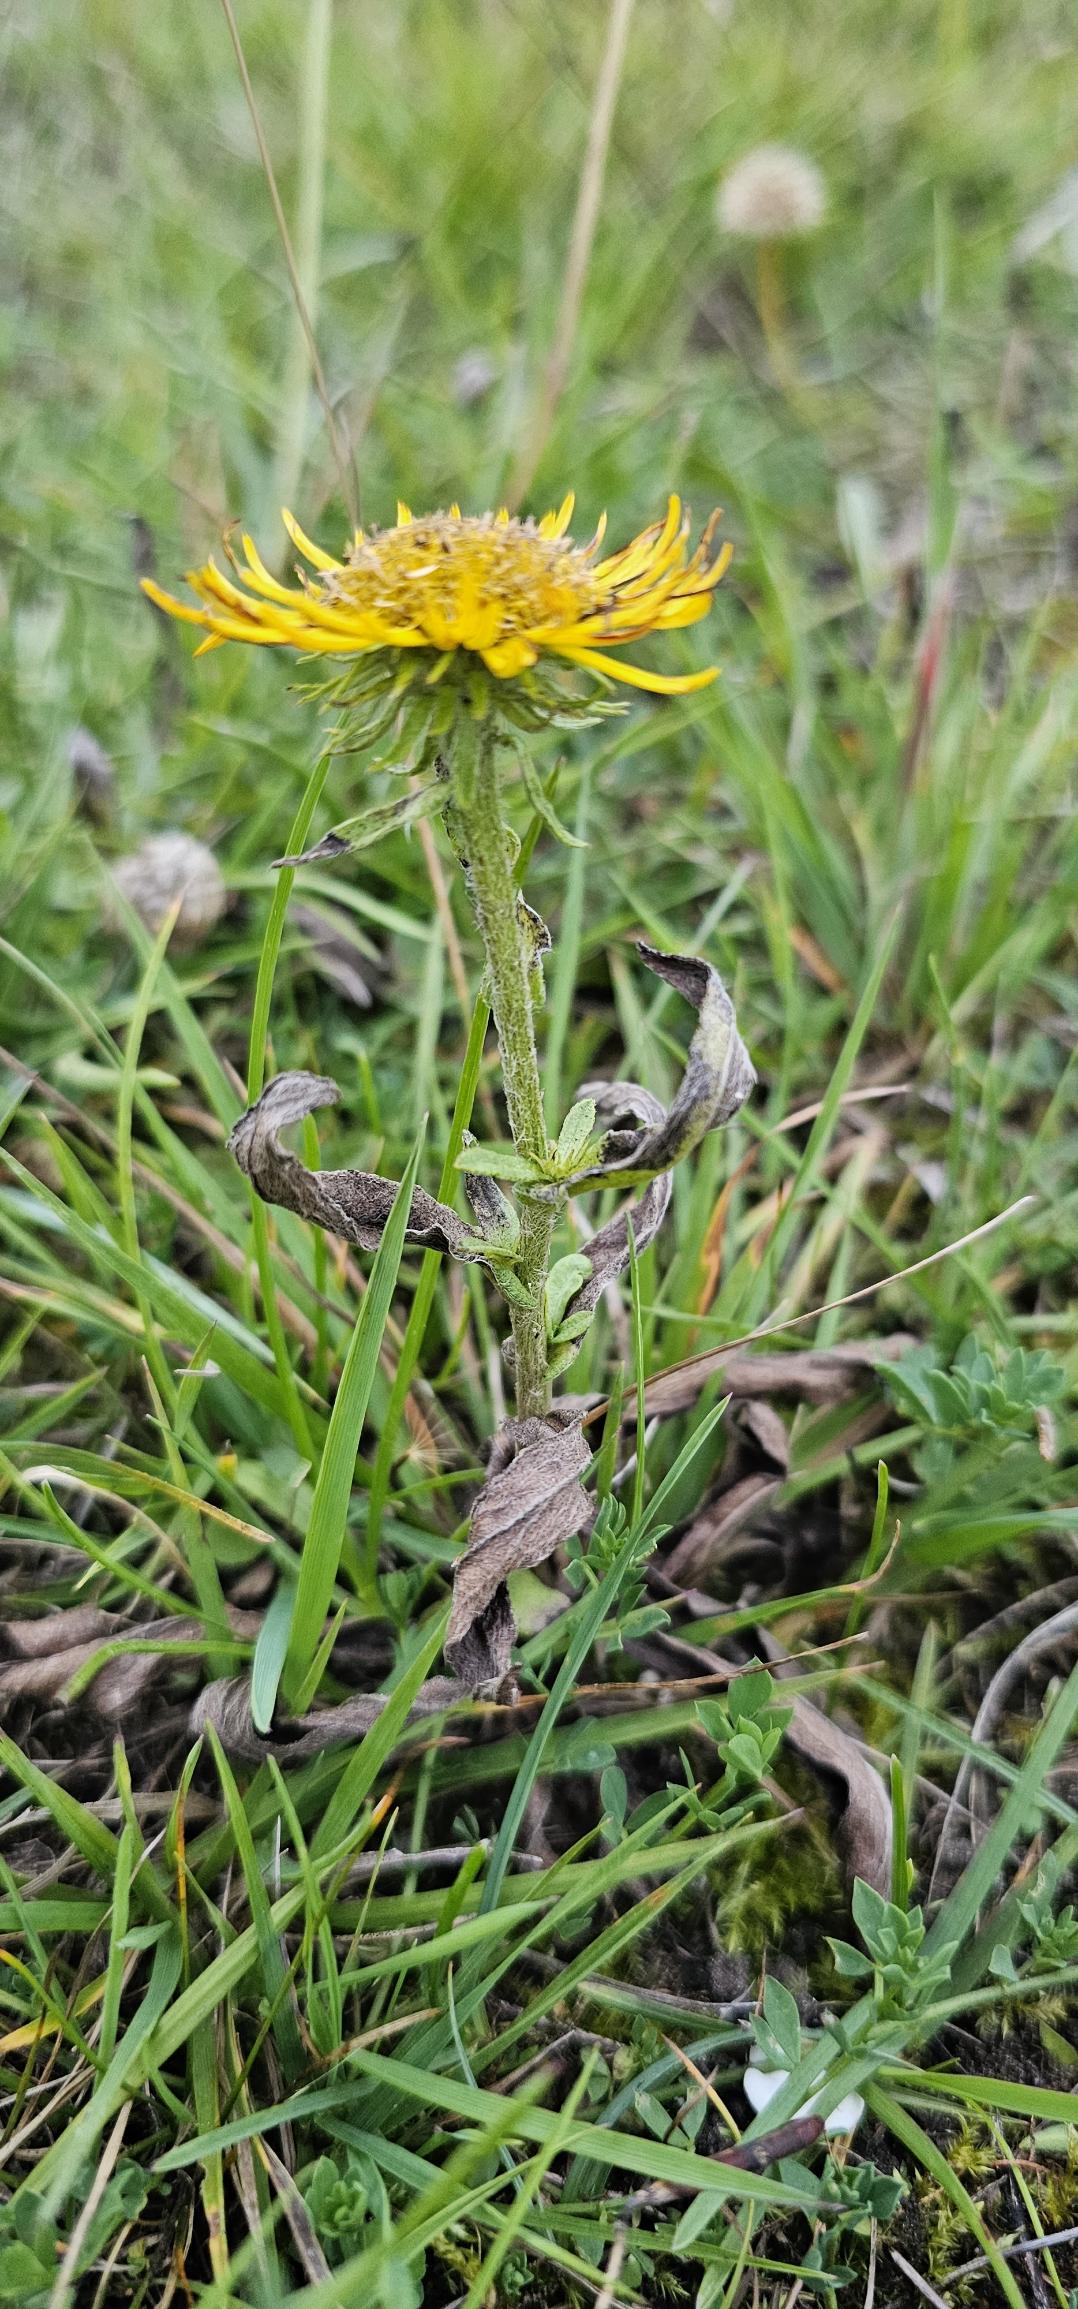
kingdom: Plantae
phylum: Tracheophyta
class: Magnoliopsida
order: Asterales
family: Asteraceae
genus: Pentanema
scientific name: Pentanema britannicum
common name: Soløje-alant
